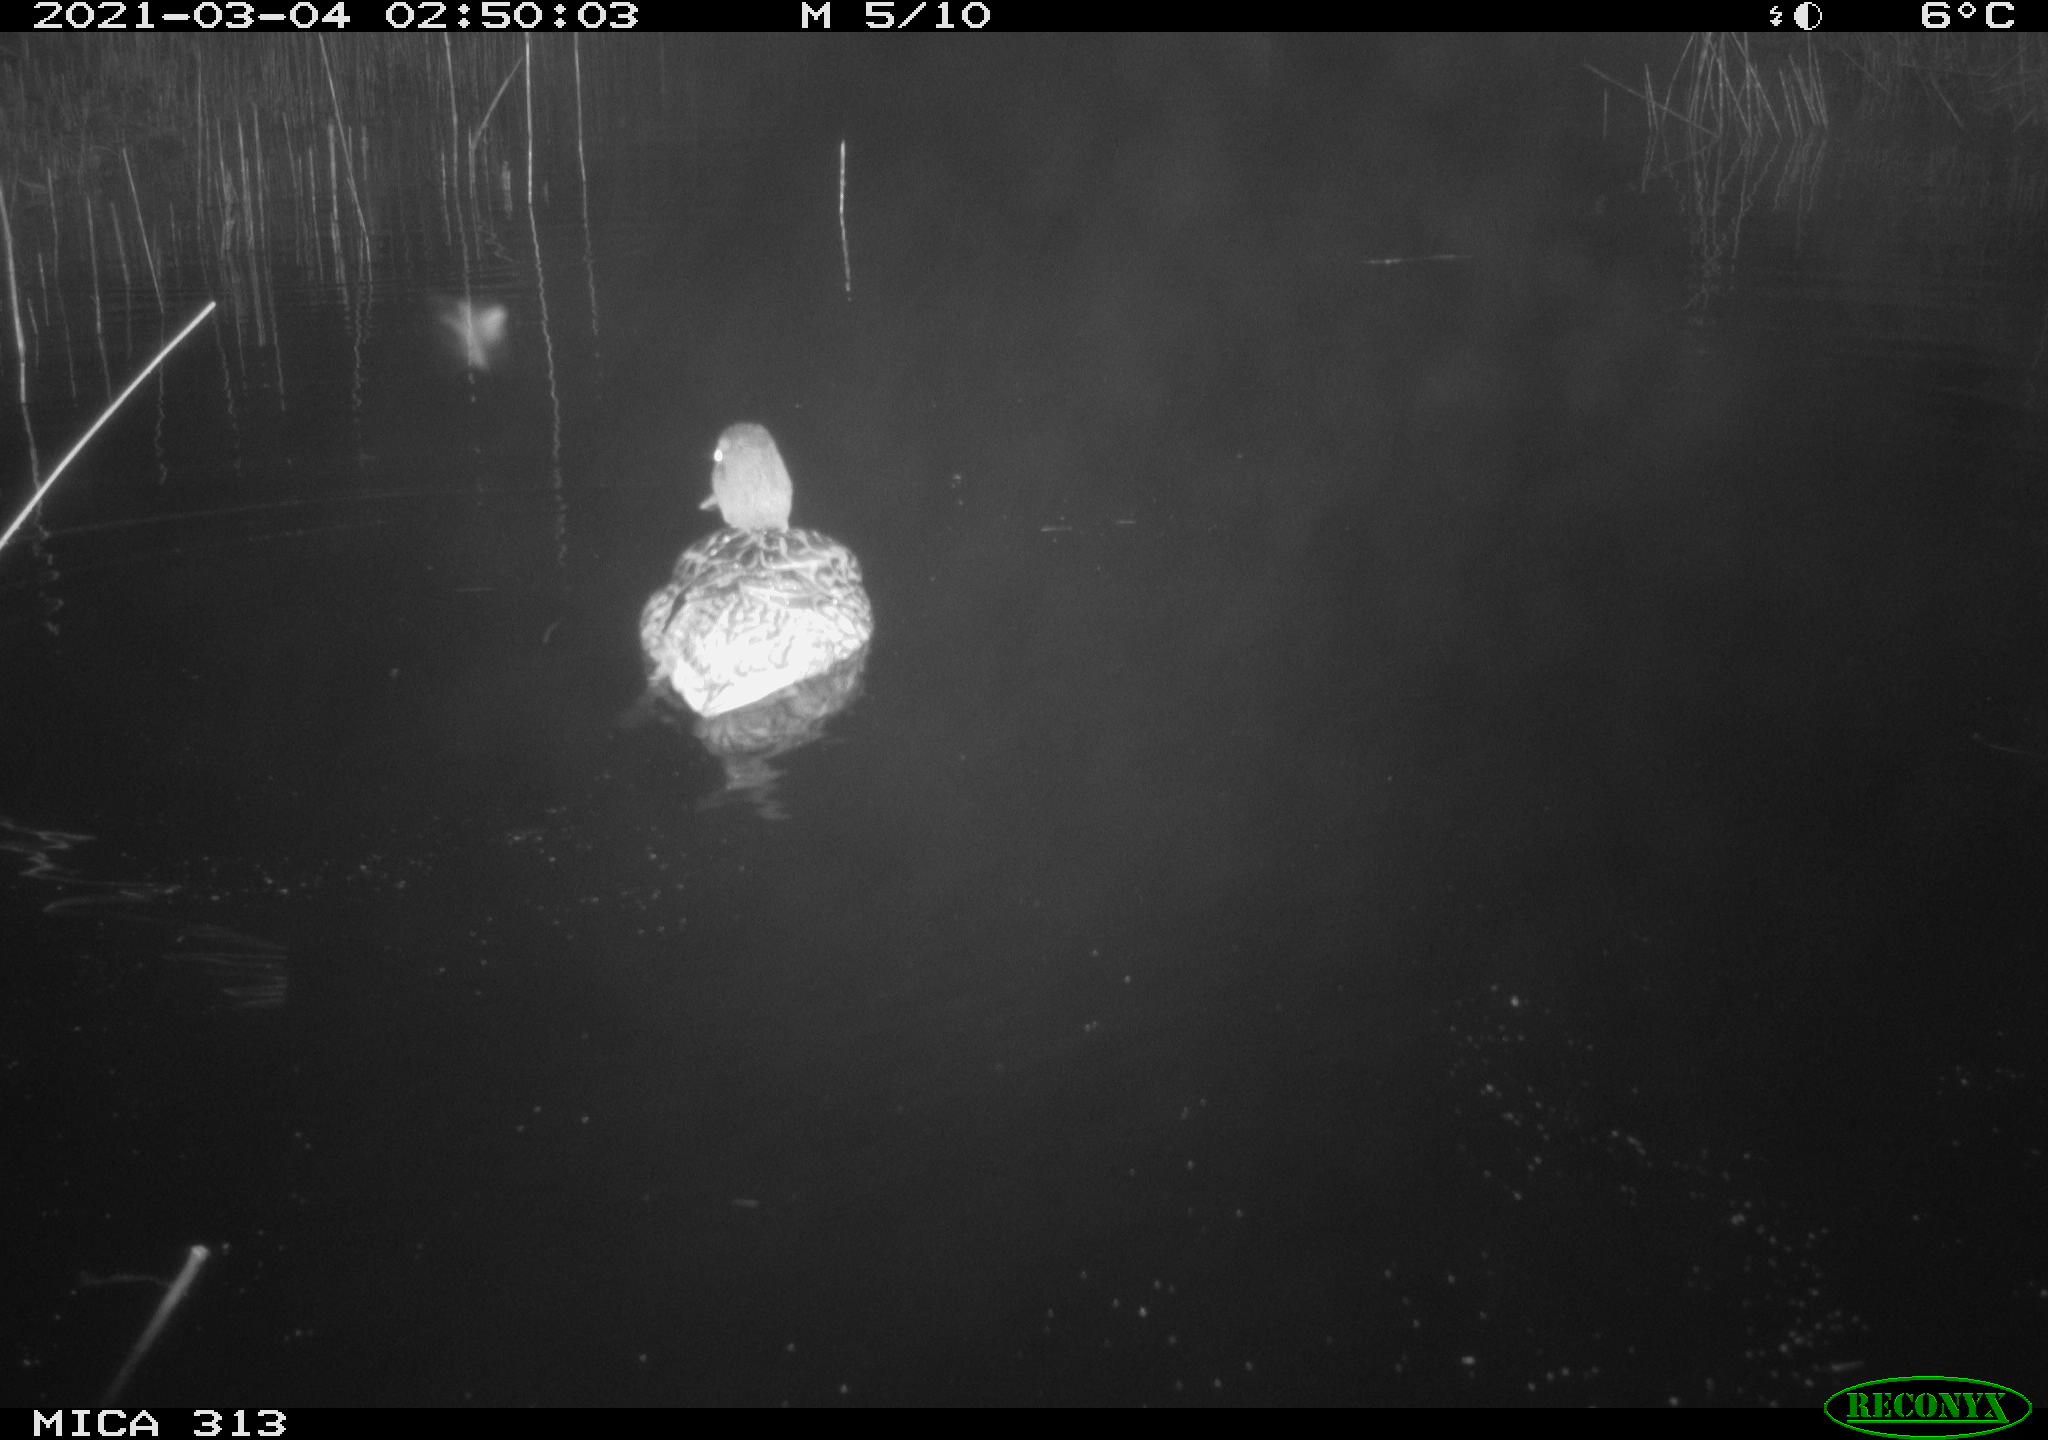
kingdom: Animalia
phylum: Chordata
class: Aves
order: Anseriformes
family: Anatidae
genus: Mareca
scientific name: Mareca strepera
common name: Gadwall
